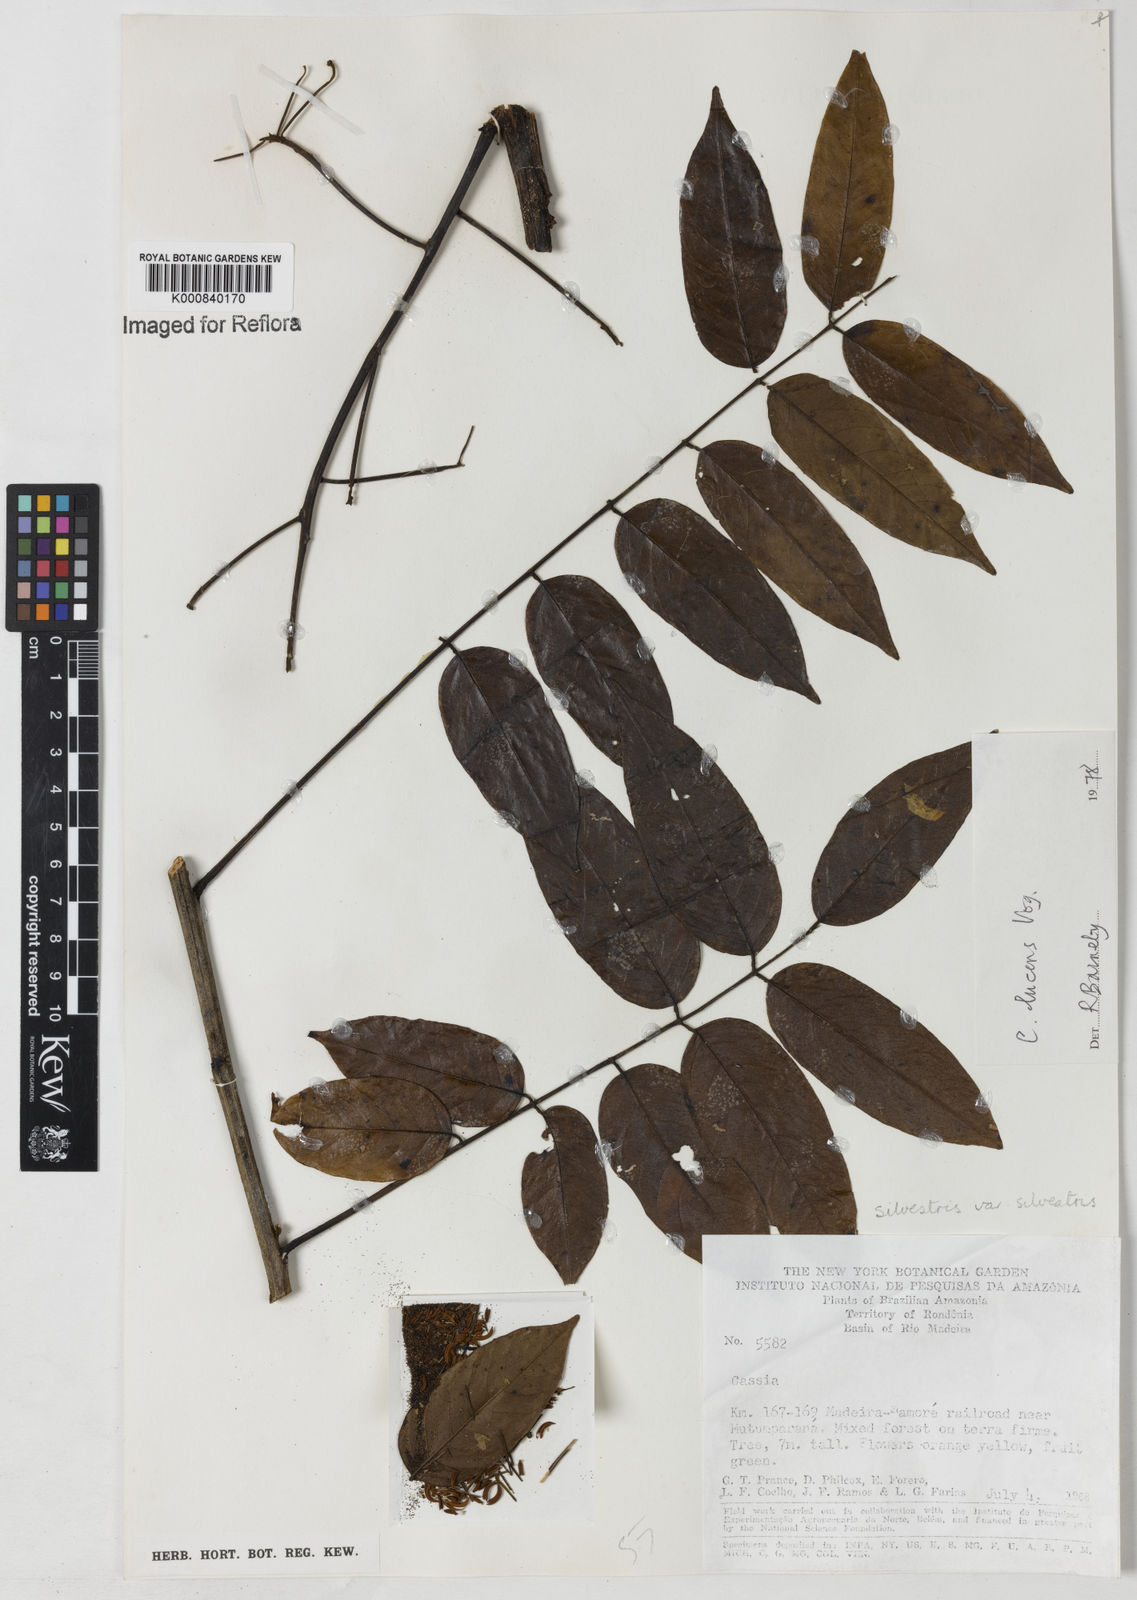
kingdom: Plantae
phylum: Tracheophyta
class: Magnoliopsida
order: Fabales
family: Fabaceae
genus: Senna
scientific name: Senna silvestris
